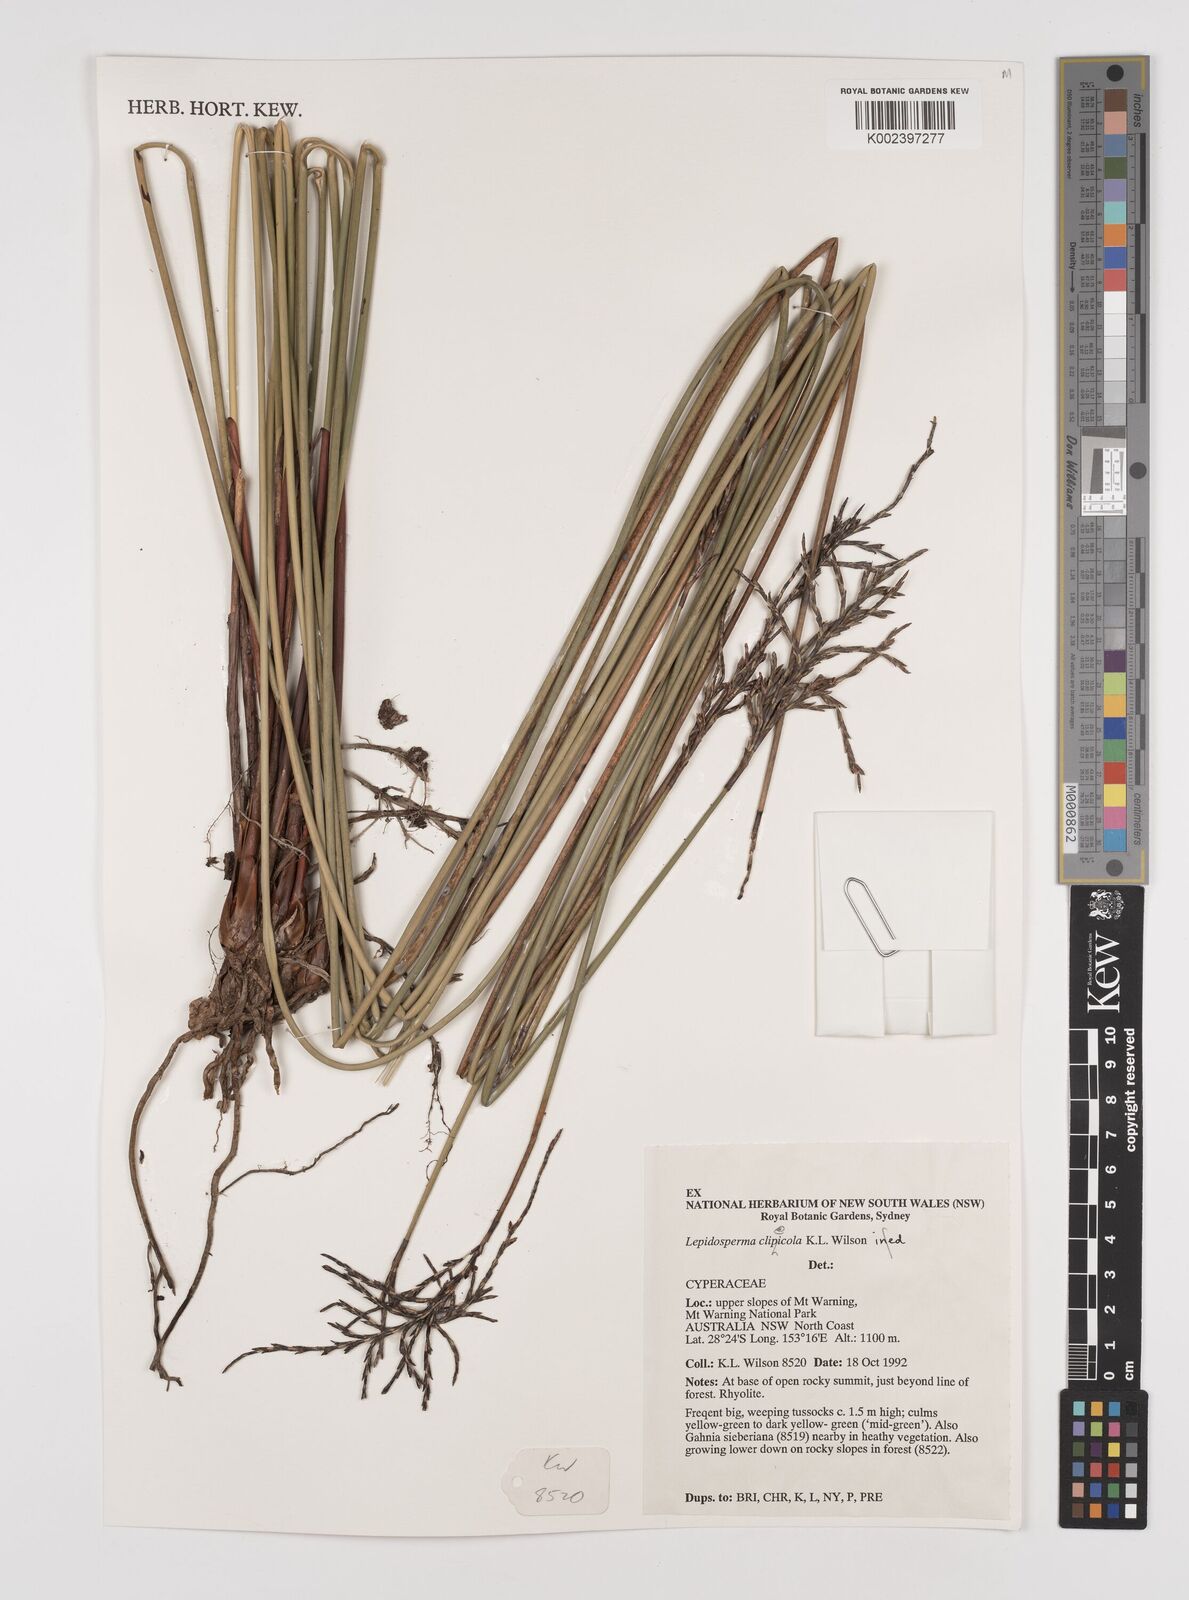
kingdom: Plantae
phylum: Tracheophyta
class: Liliopsida
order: Poales
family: Cyperaceae
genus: Lepidosperma
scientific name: Lepidosperma clipeicola
